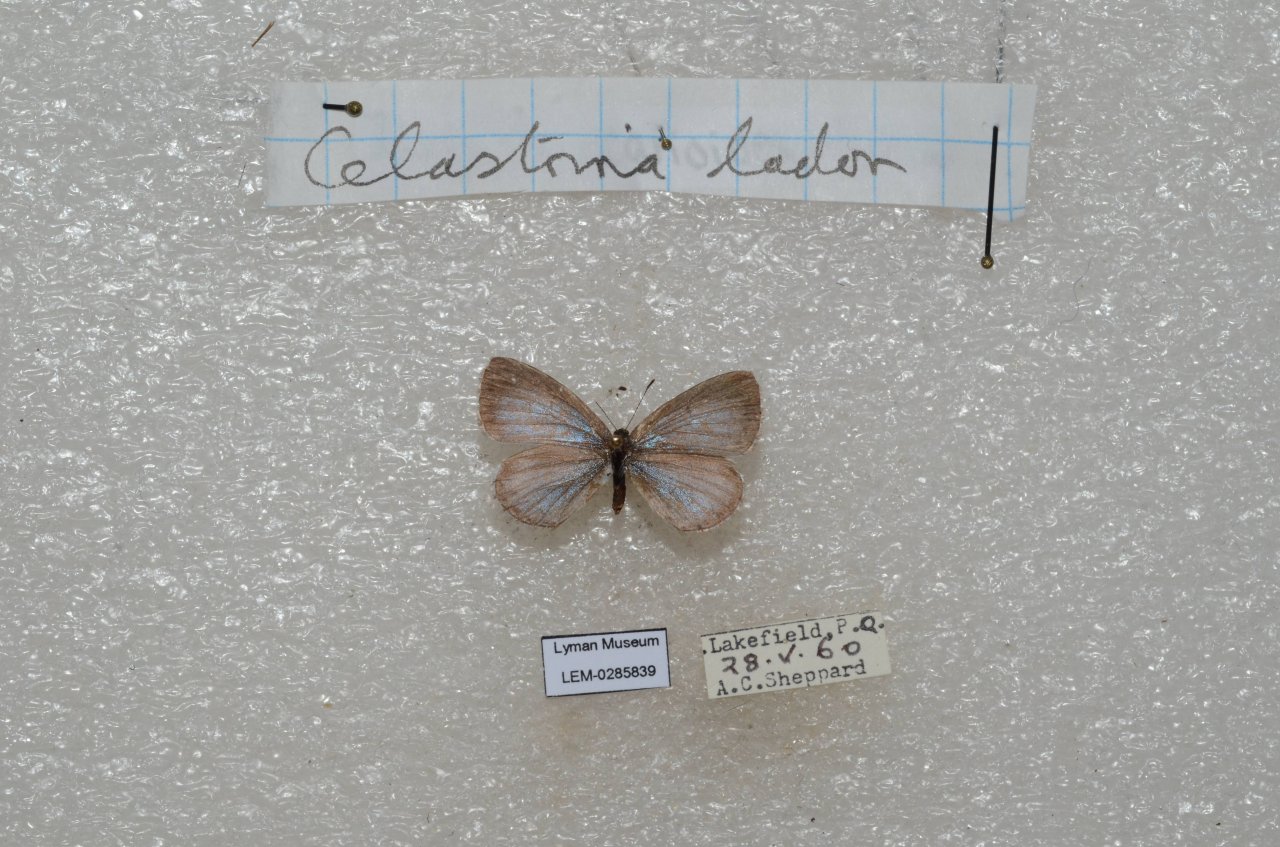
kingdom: Animalia
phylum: Arthropoda
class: Insecta
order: Lepidoptera
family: Lycaenidae
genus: Celastrina
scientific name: Celastrina lucia
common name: Northern Spring Azure
